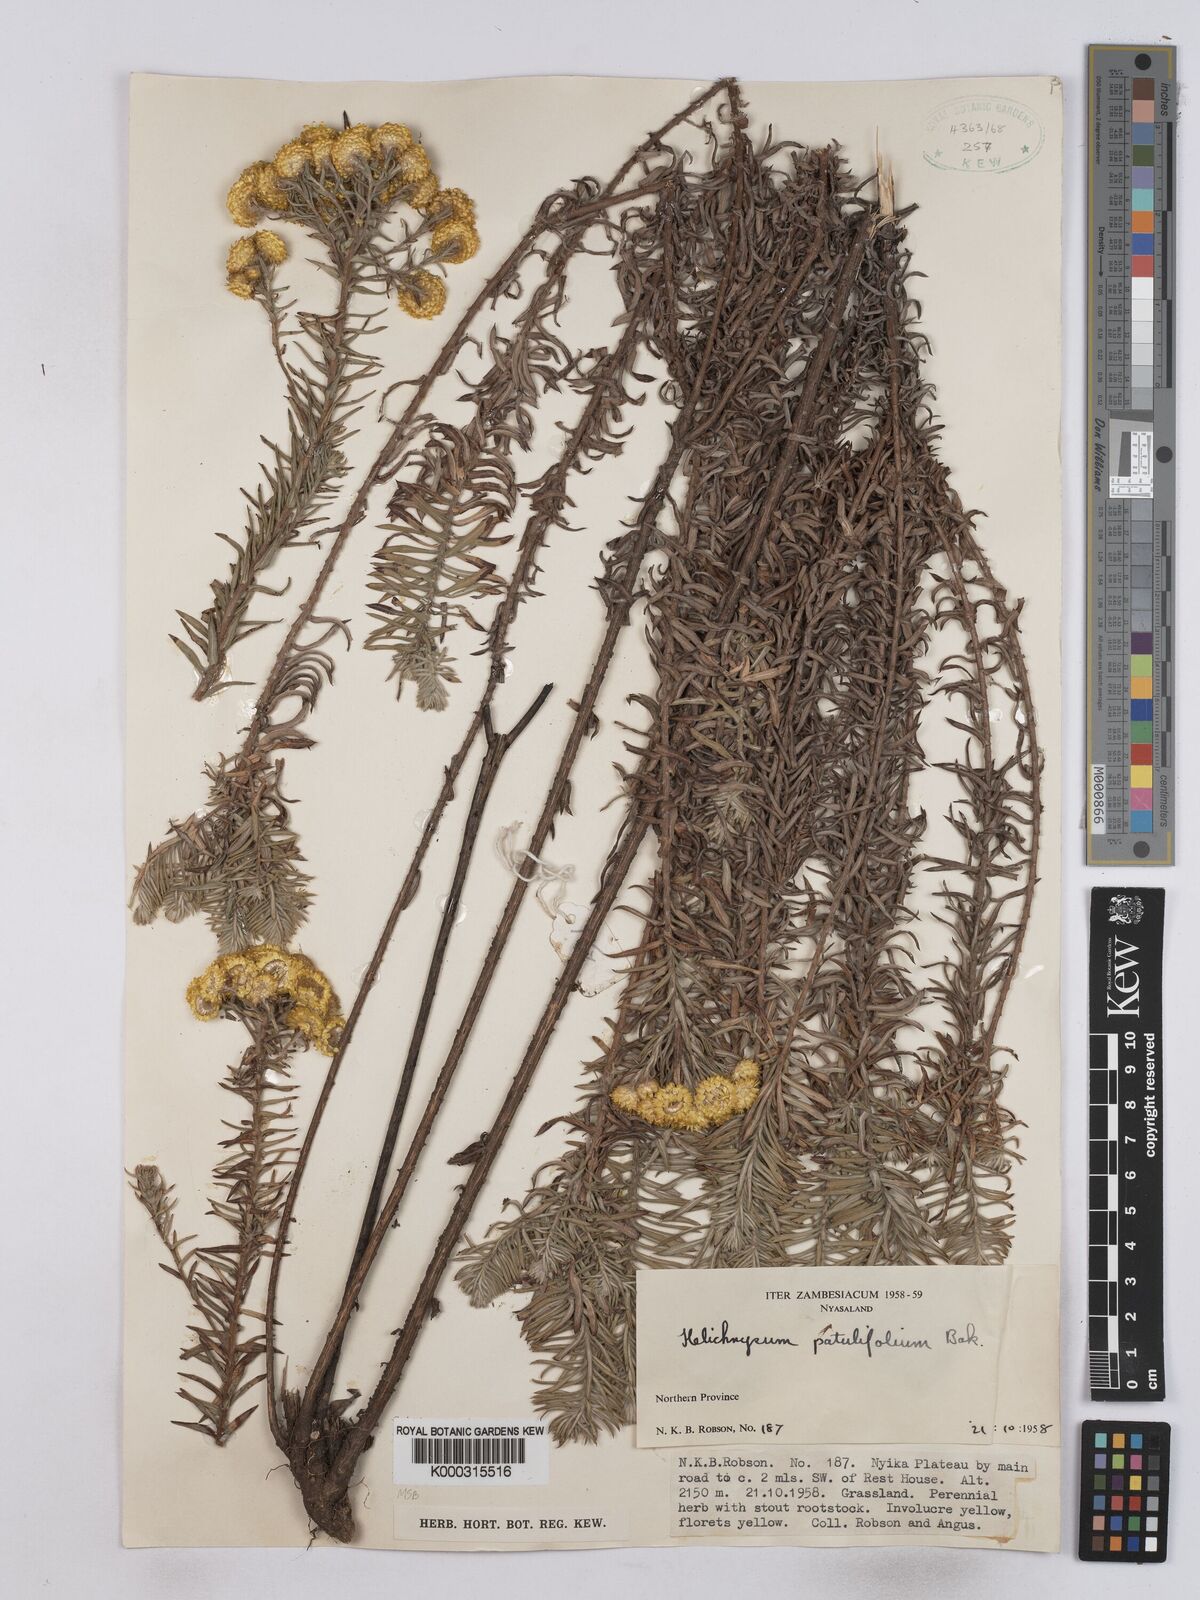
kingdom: Plantae
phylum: Tracheophyta
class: Magnoliopsida
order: Asterales
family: Asteraceae
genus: Helichrysum
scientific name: Helichrysum patulifolium
